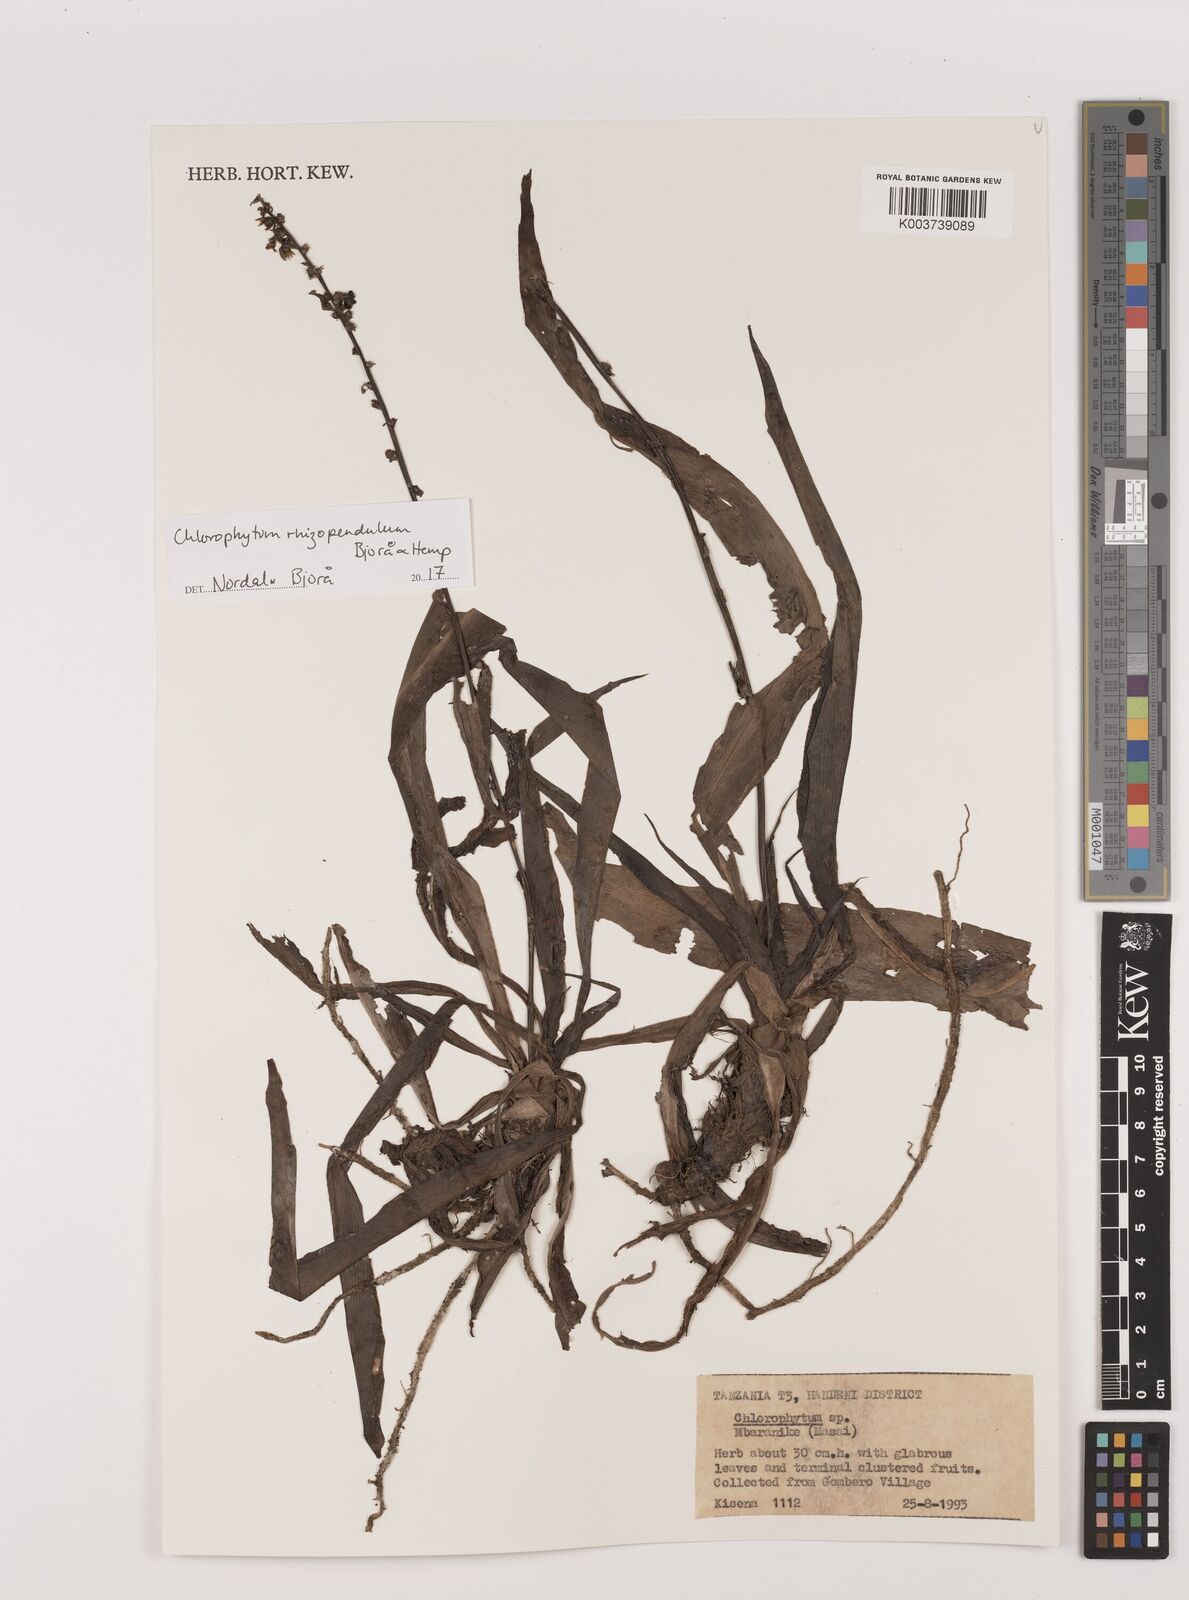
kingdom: Plantae
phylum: Tracheophyta
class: Liliopsida
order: Asparagales
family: Asparagaceae
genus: Chlorophytum
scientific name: Chlorophytum rhizopendulum
